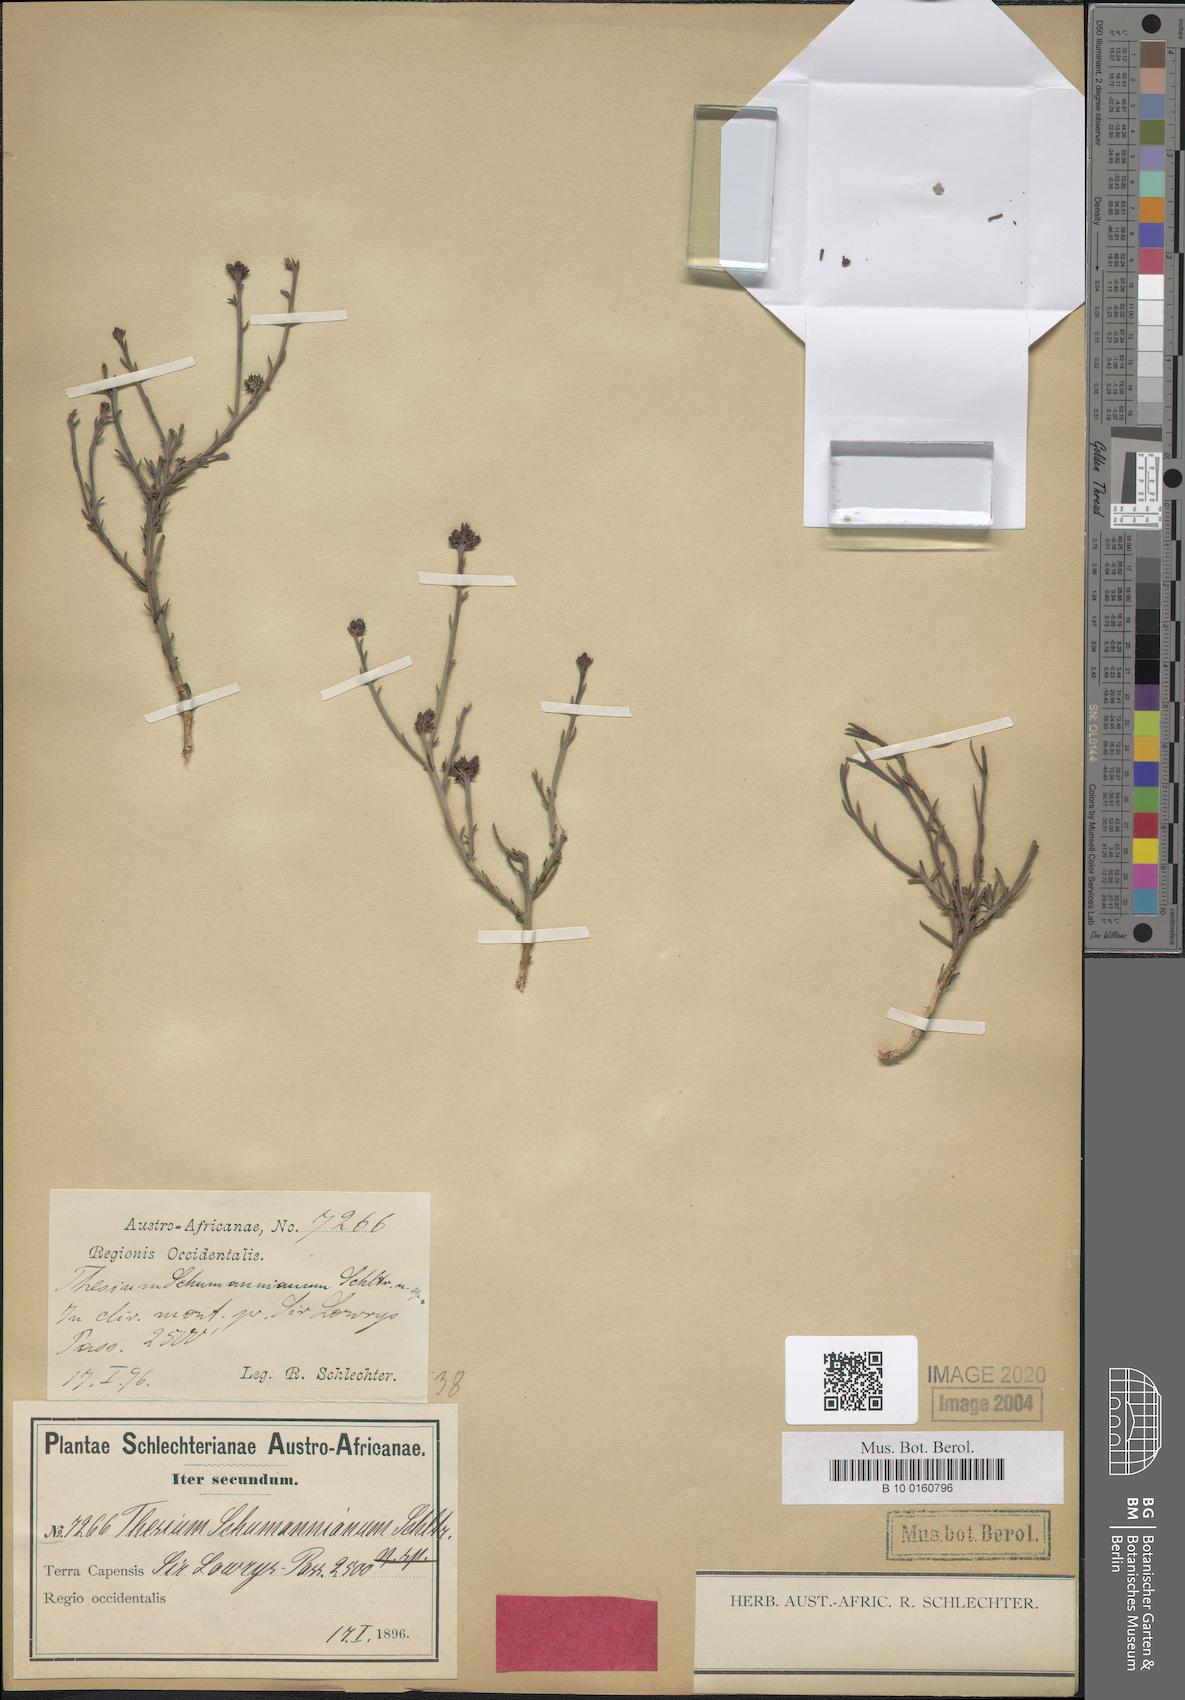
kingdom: Plantae
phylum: Tracheophyta
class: Magnoliopsida
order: Santalales
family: Thesiaceae
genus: Thesium
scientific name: Thesium schumannianum
